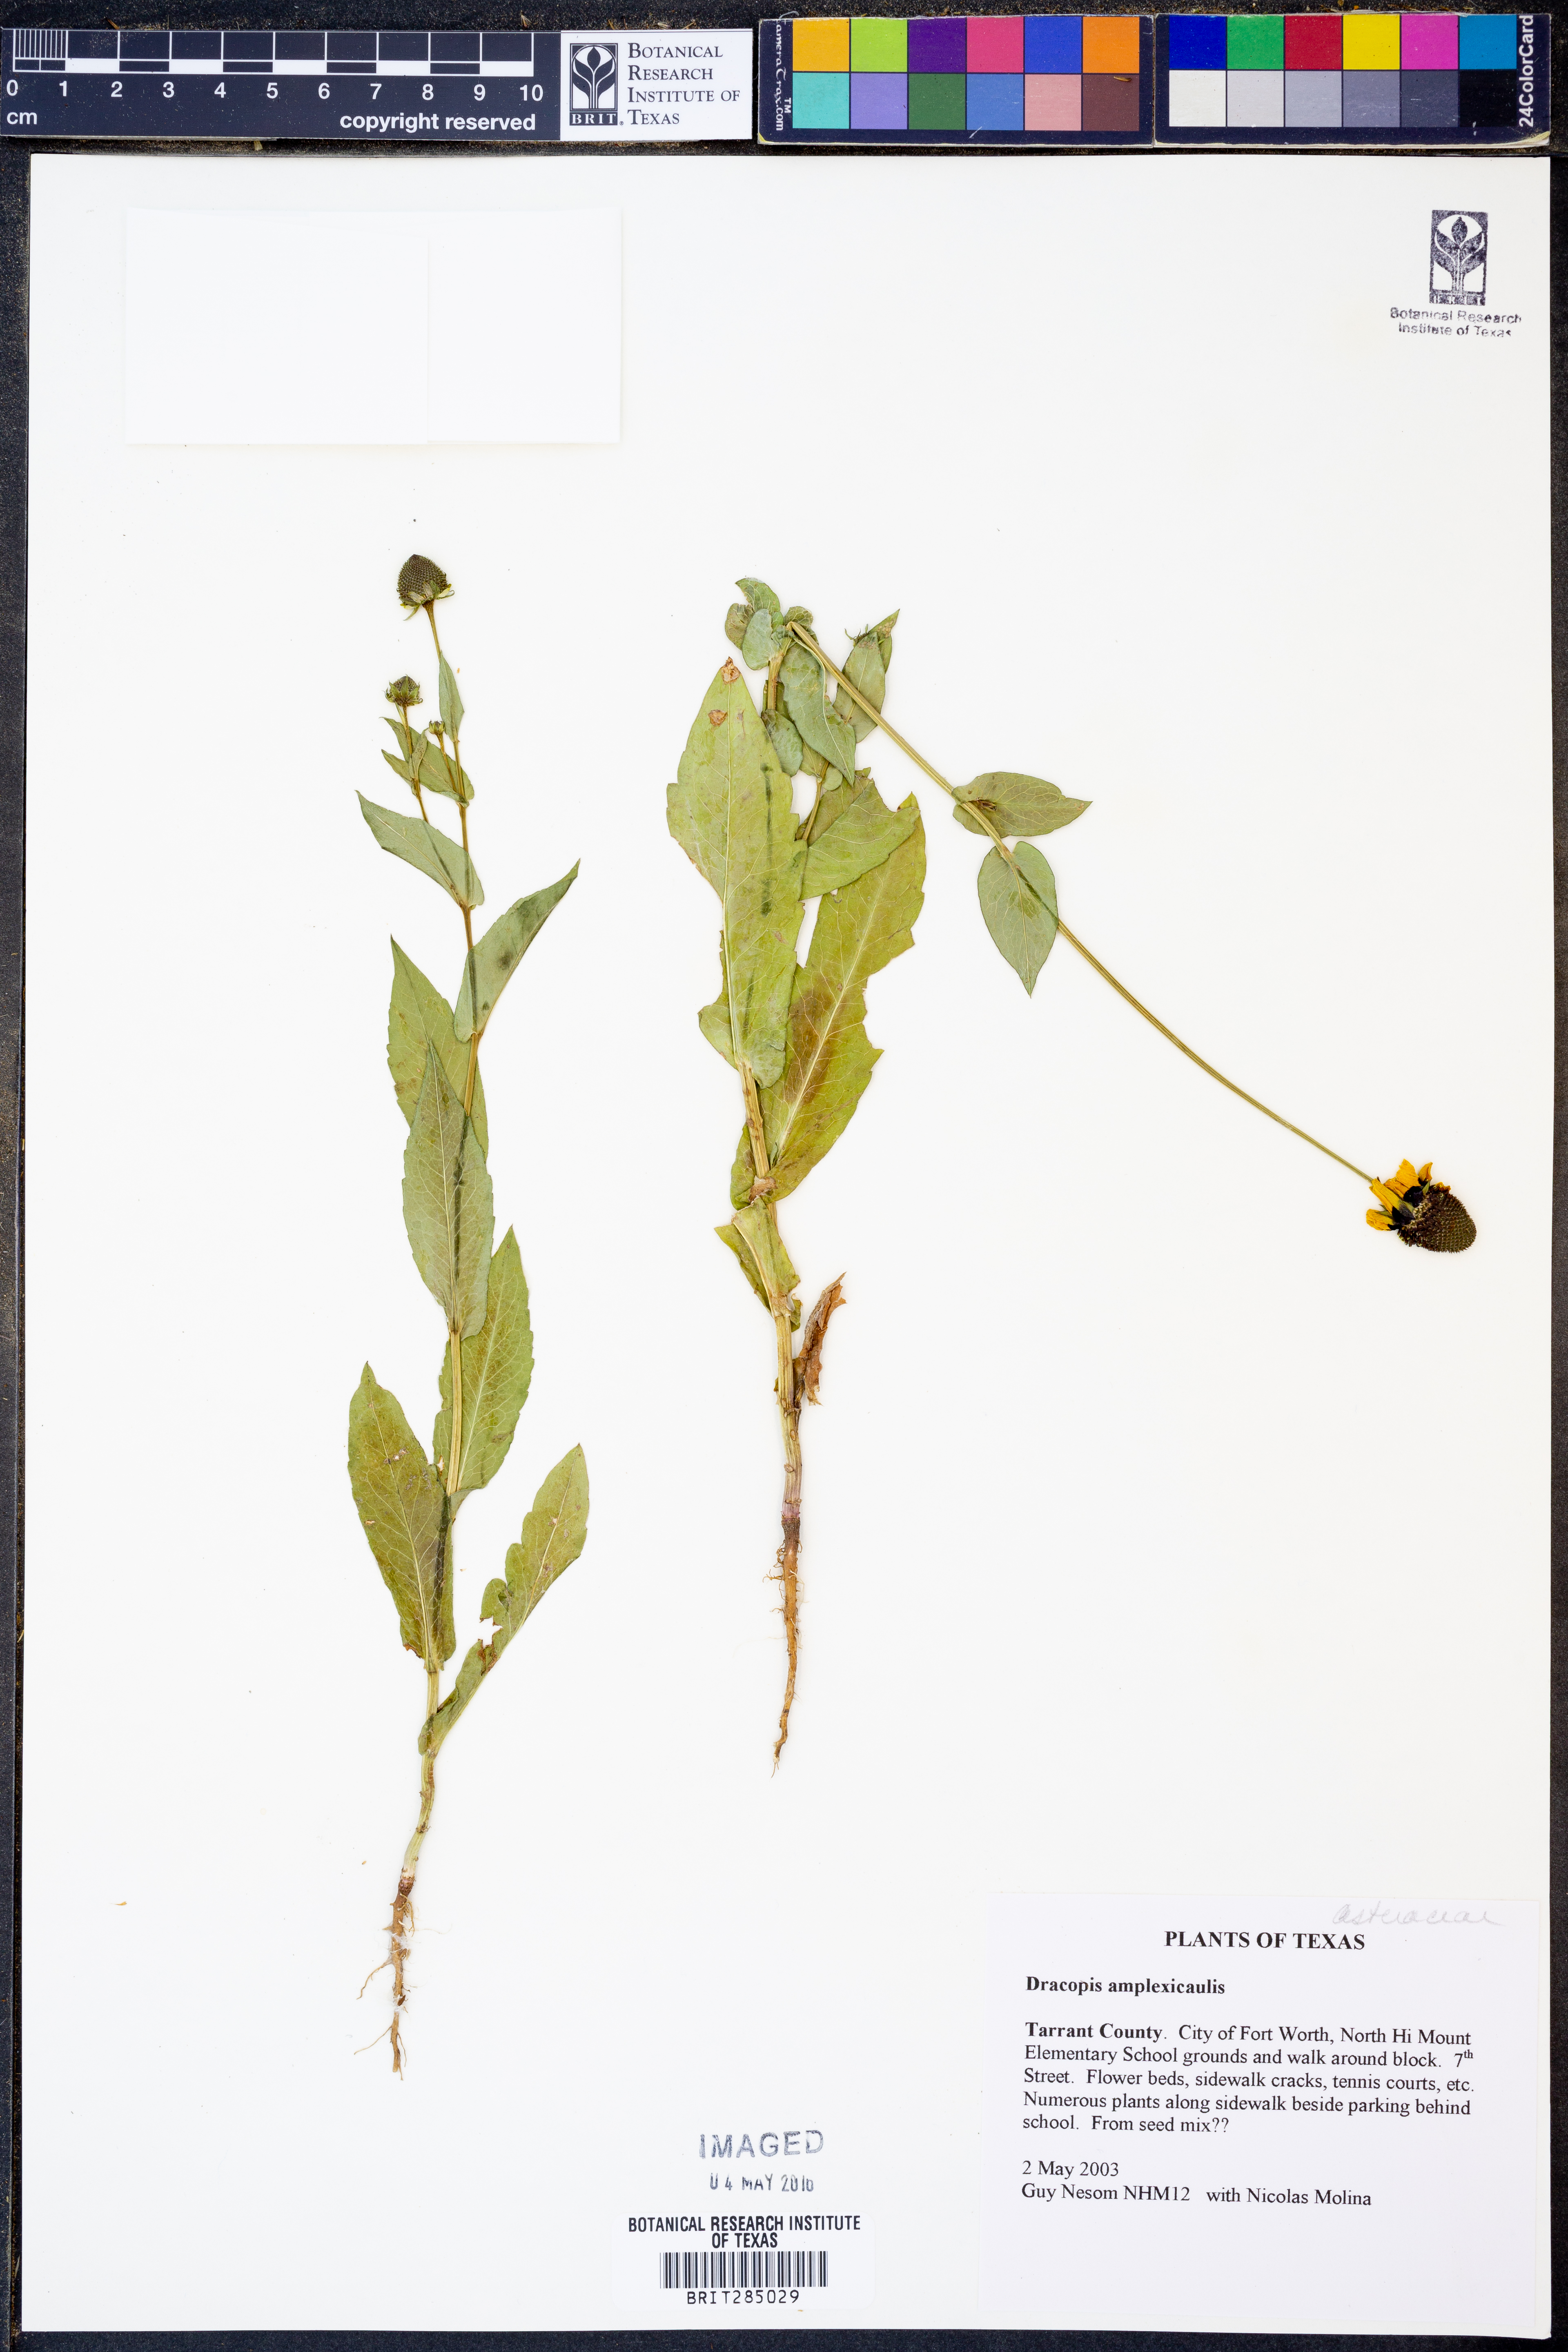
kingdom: Plantae
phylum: Tracheophyta
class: Magnoliopsida
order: Asterales
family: Asteraceae
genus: Rudbeckia
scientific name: Rudbeckia amplexicaulis
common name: Clasping-leaf coneflower
